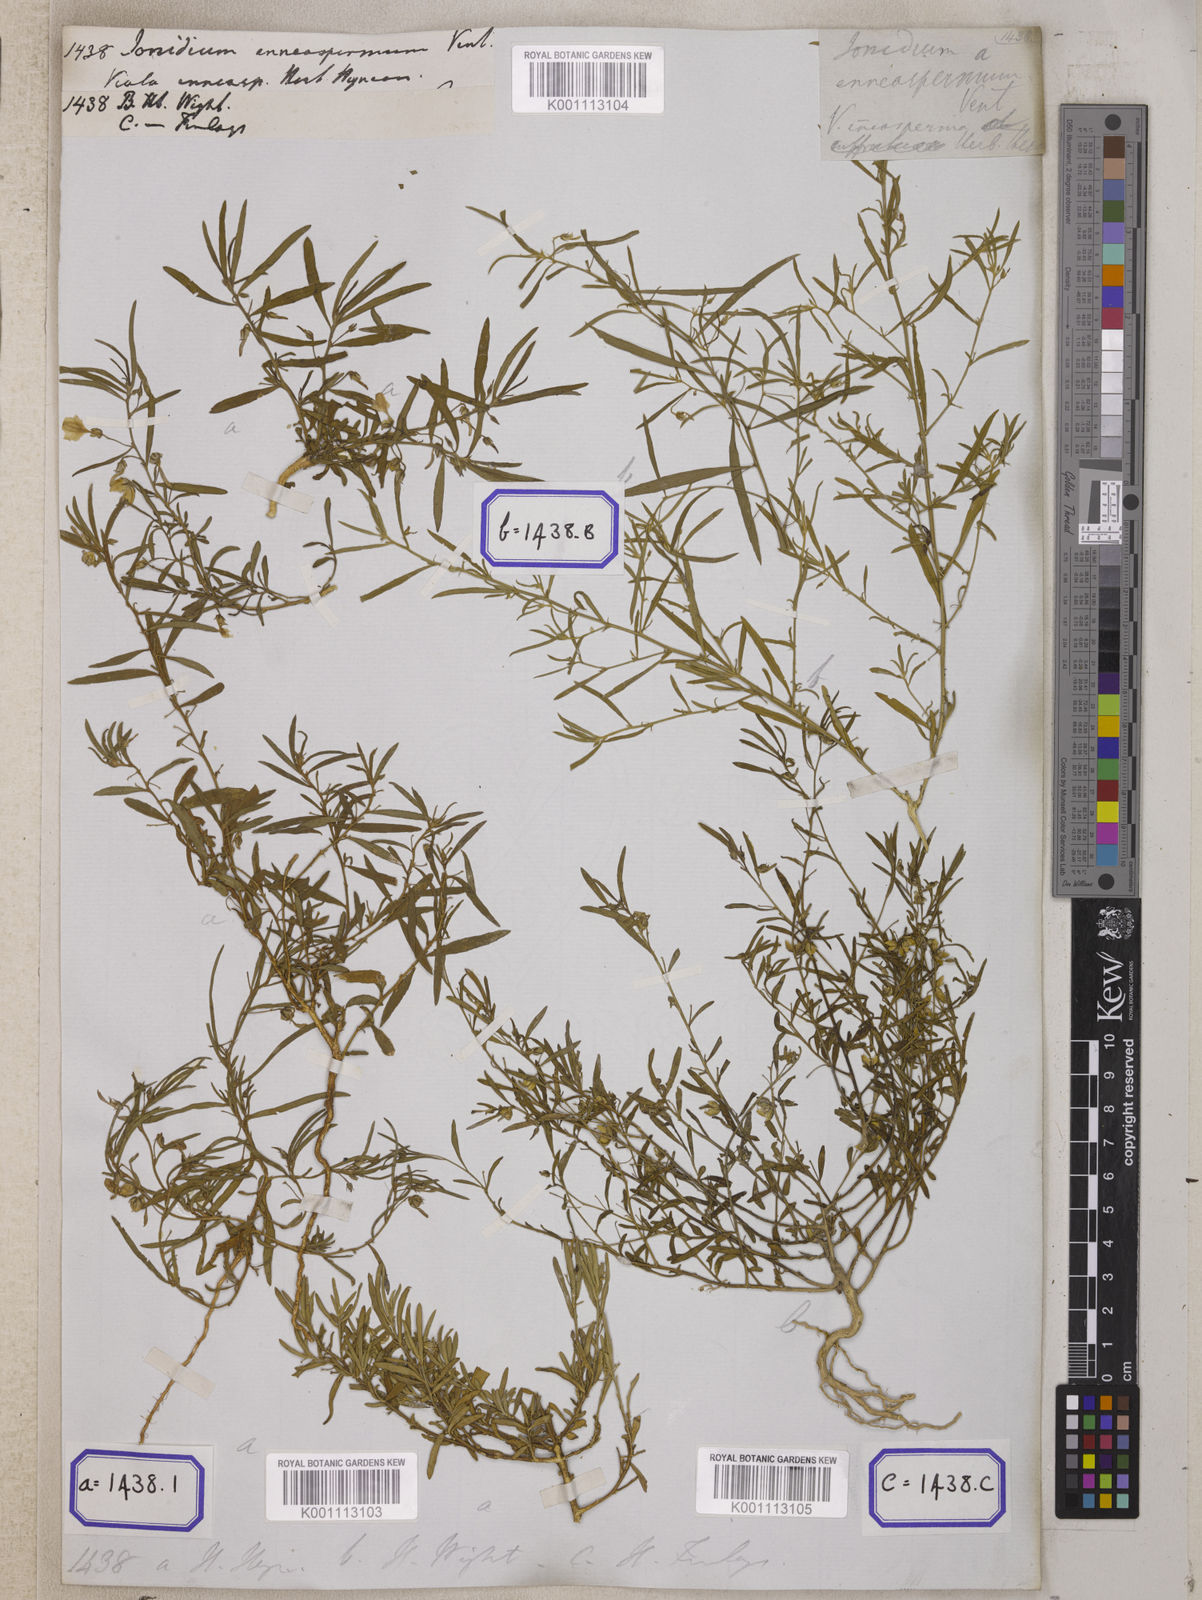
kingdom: Plantae
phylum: Tracheophyta
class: Magnoliopsida
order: Malpighiales
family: Violaceae
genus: Pigea
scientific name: Pigea enneasperma
